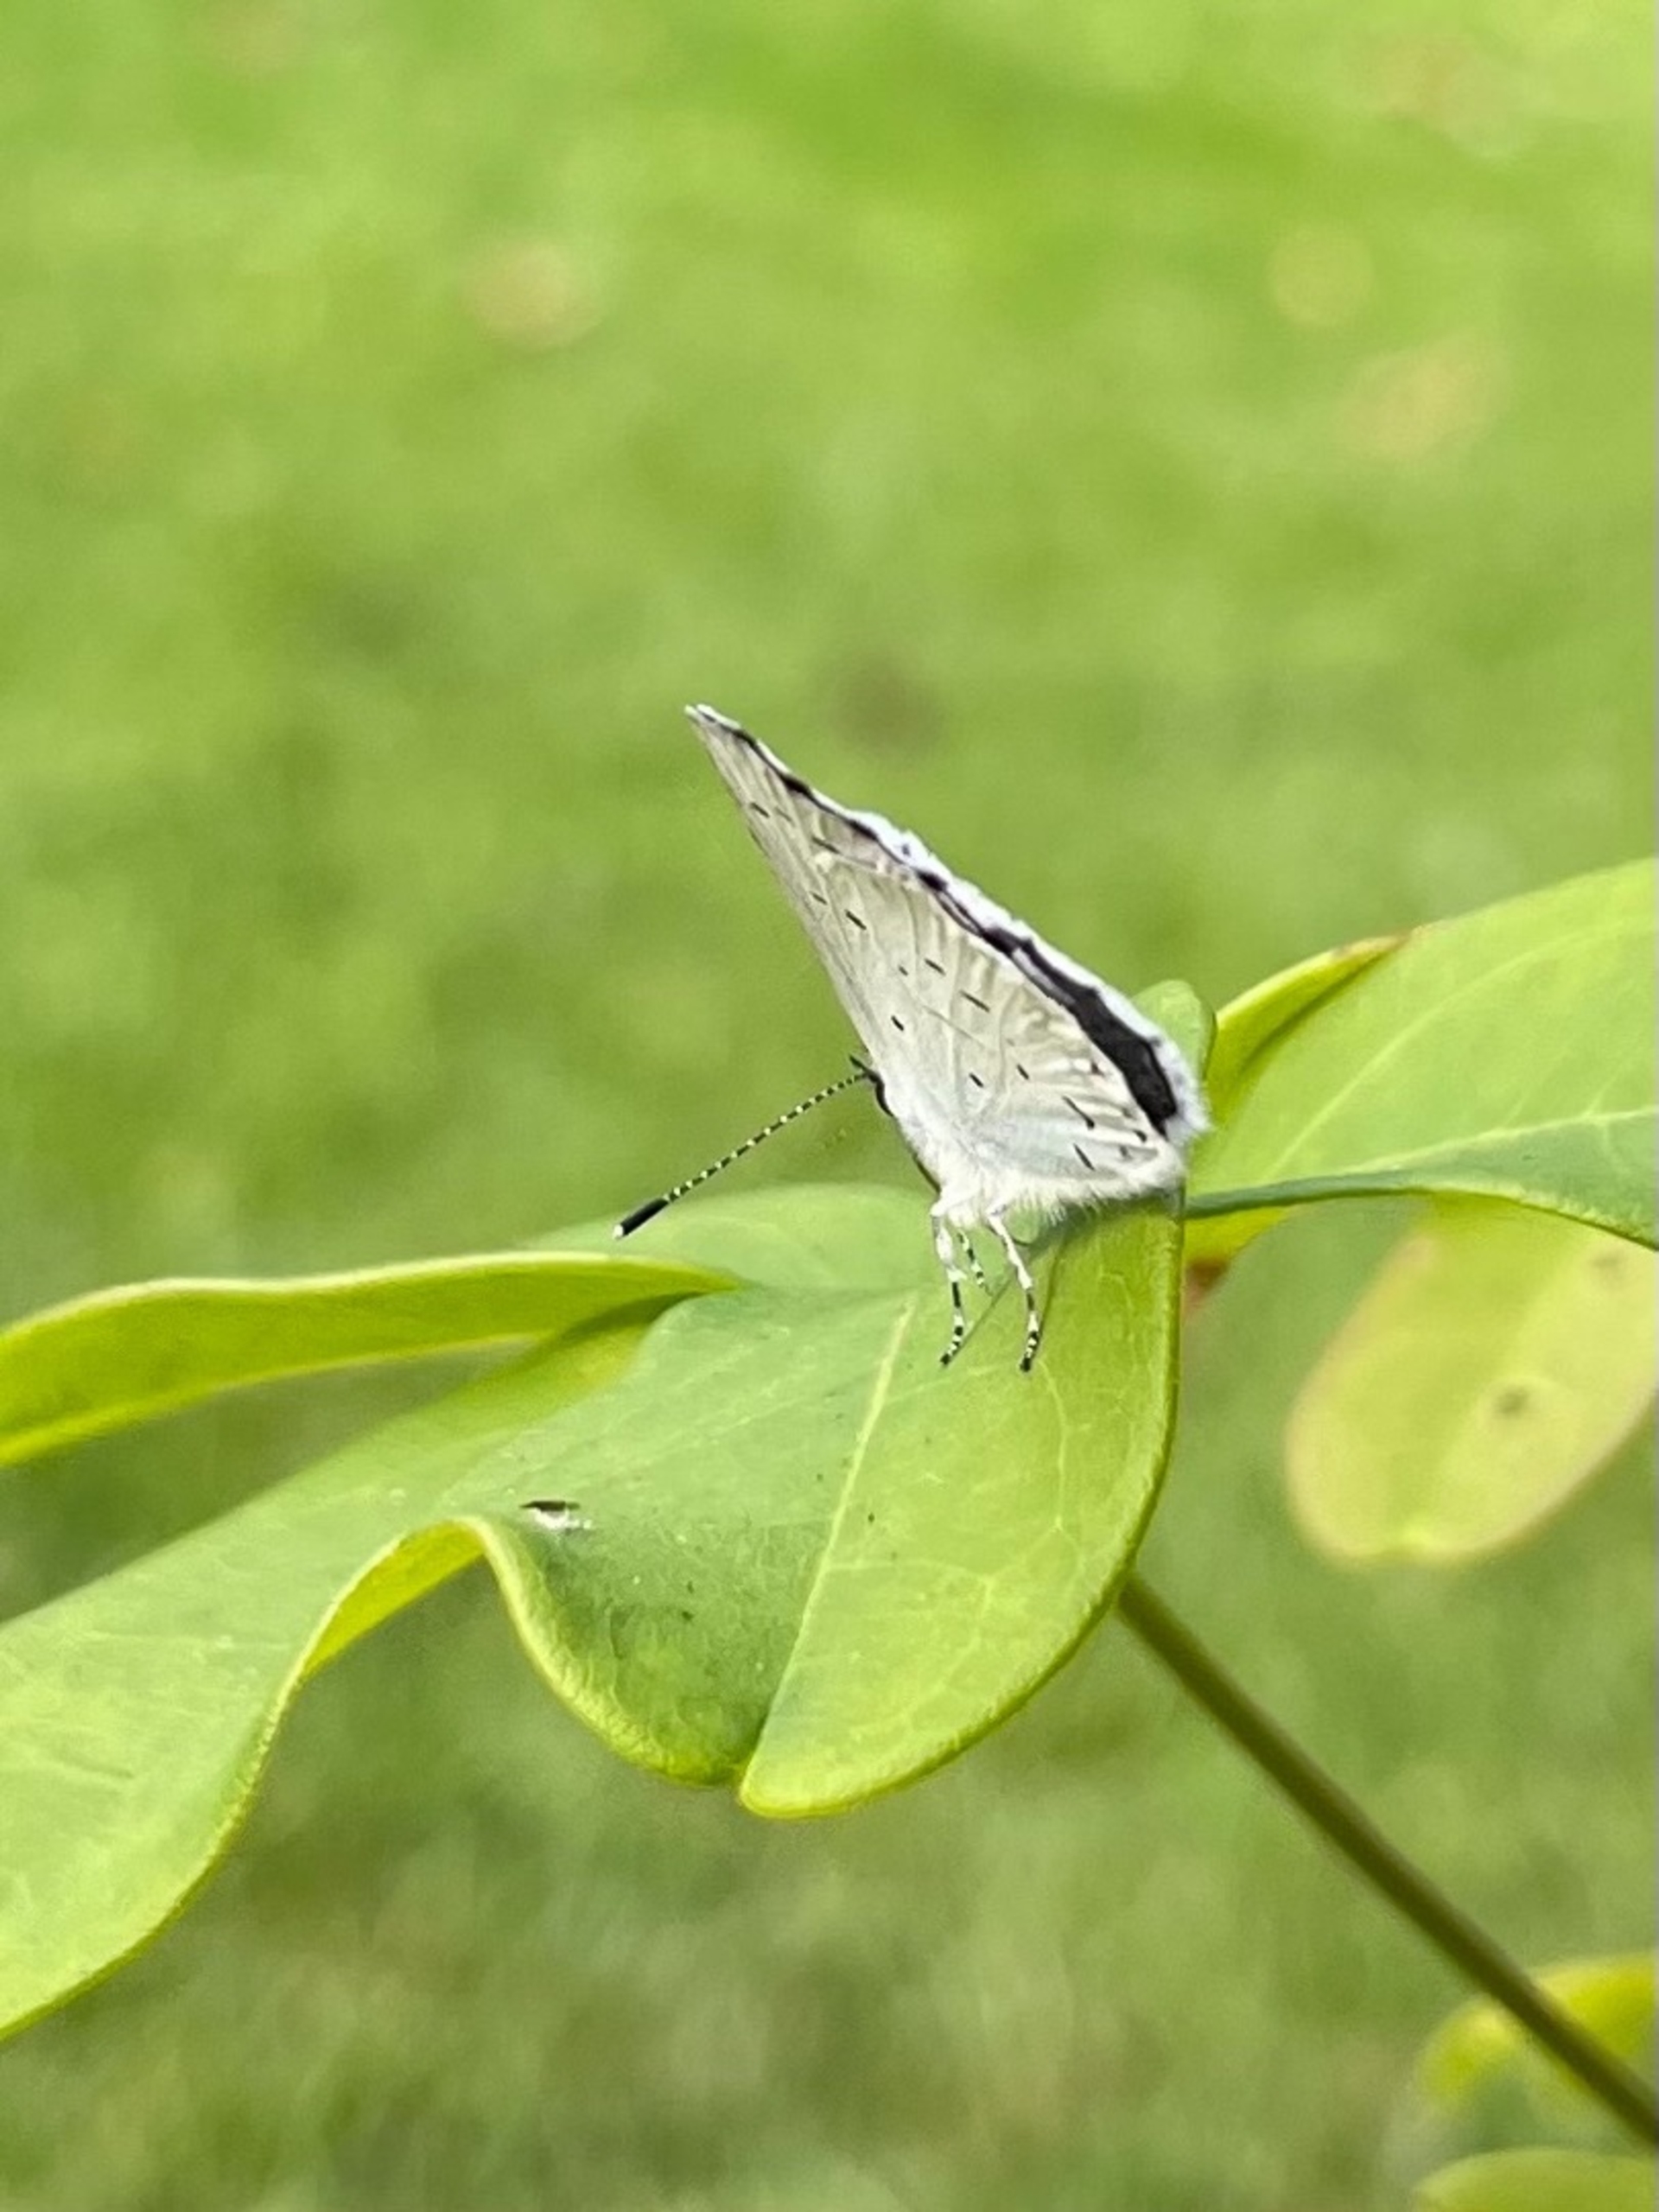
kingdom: Animalia
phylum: Arthropoda
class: Insecta
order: Lepidoptera
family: Lycaenidae
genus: Celastrina
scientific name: Celastrina argiolus
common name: Skovblåfugl
